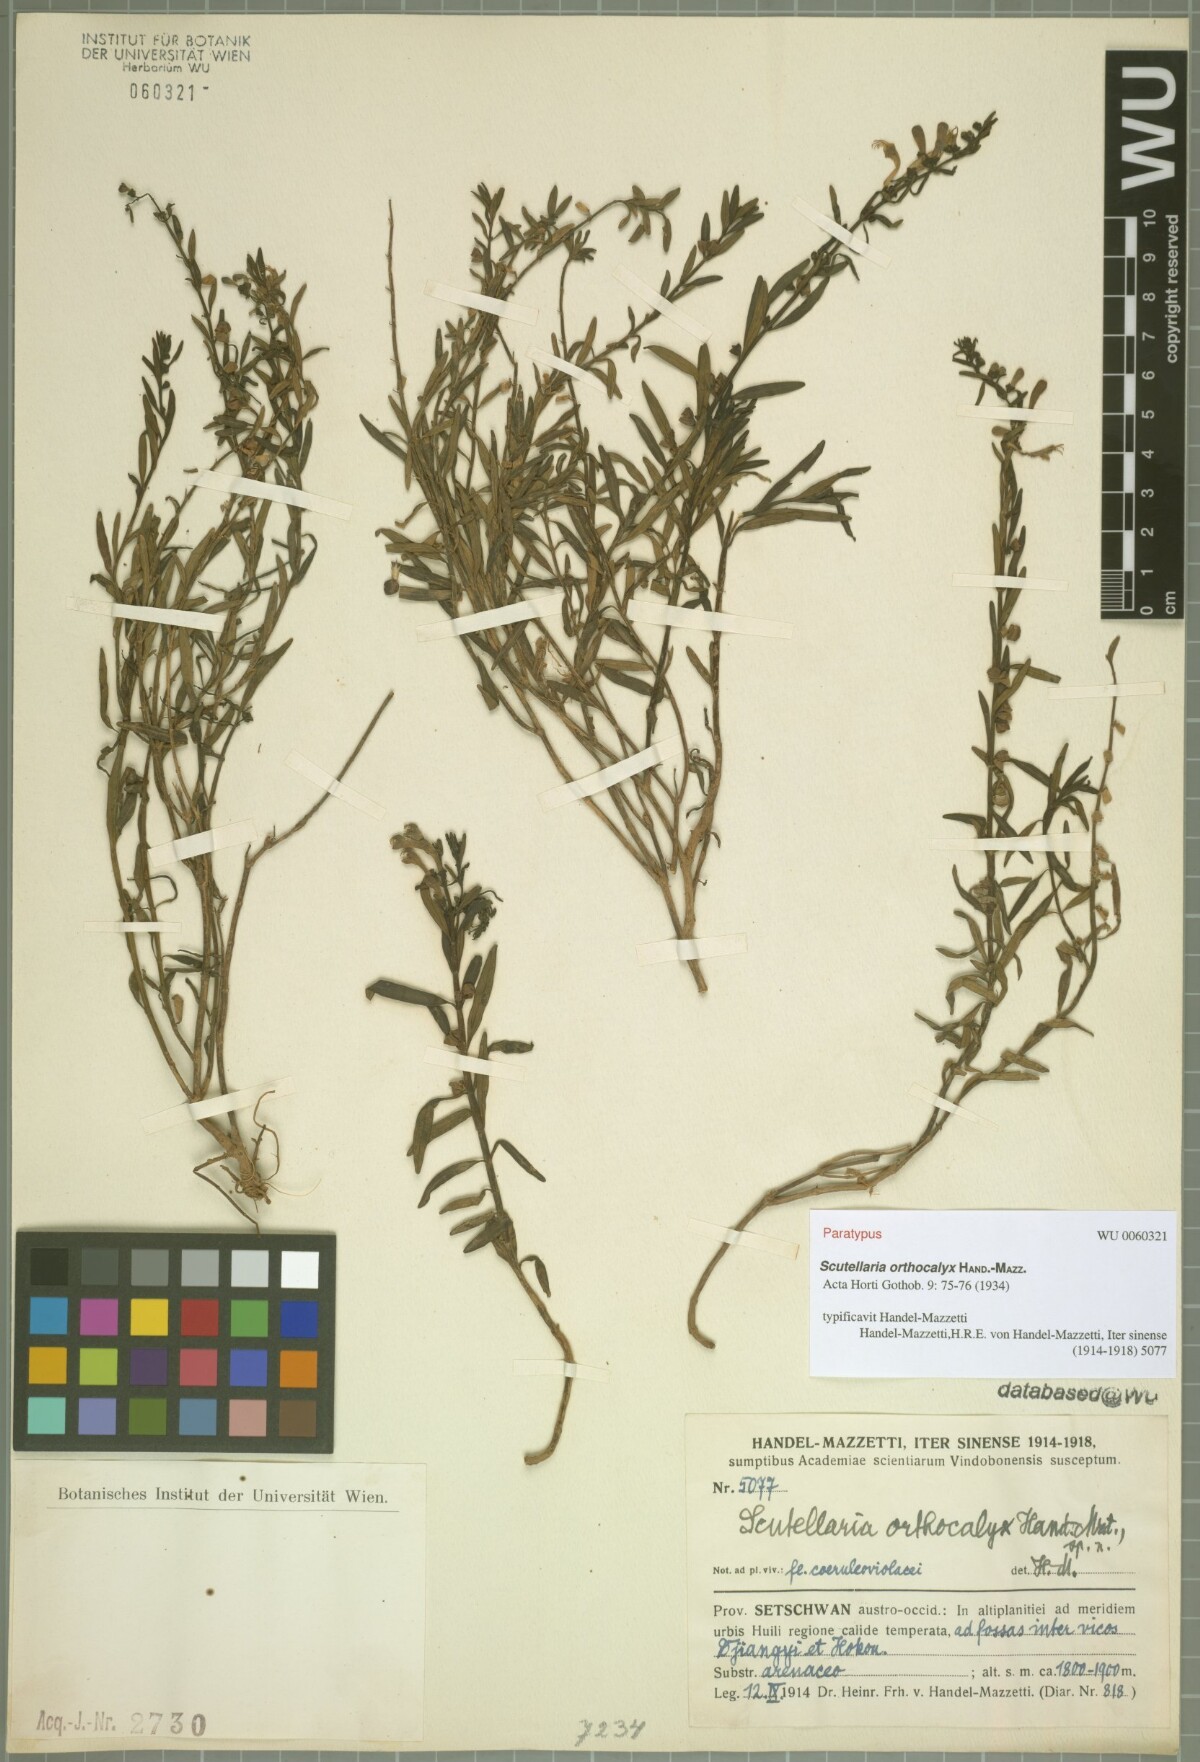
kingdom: Plantae
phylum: Tracheophyta
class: Magnoliopsida
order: Lamiales
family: Lamiaceae
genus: Scutellaria
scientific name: Scutellaria orthocalyx
